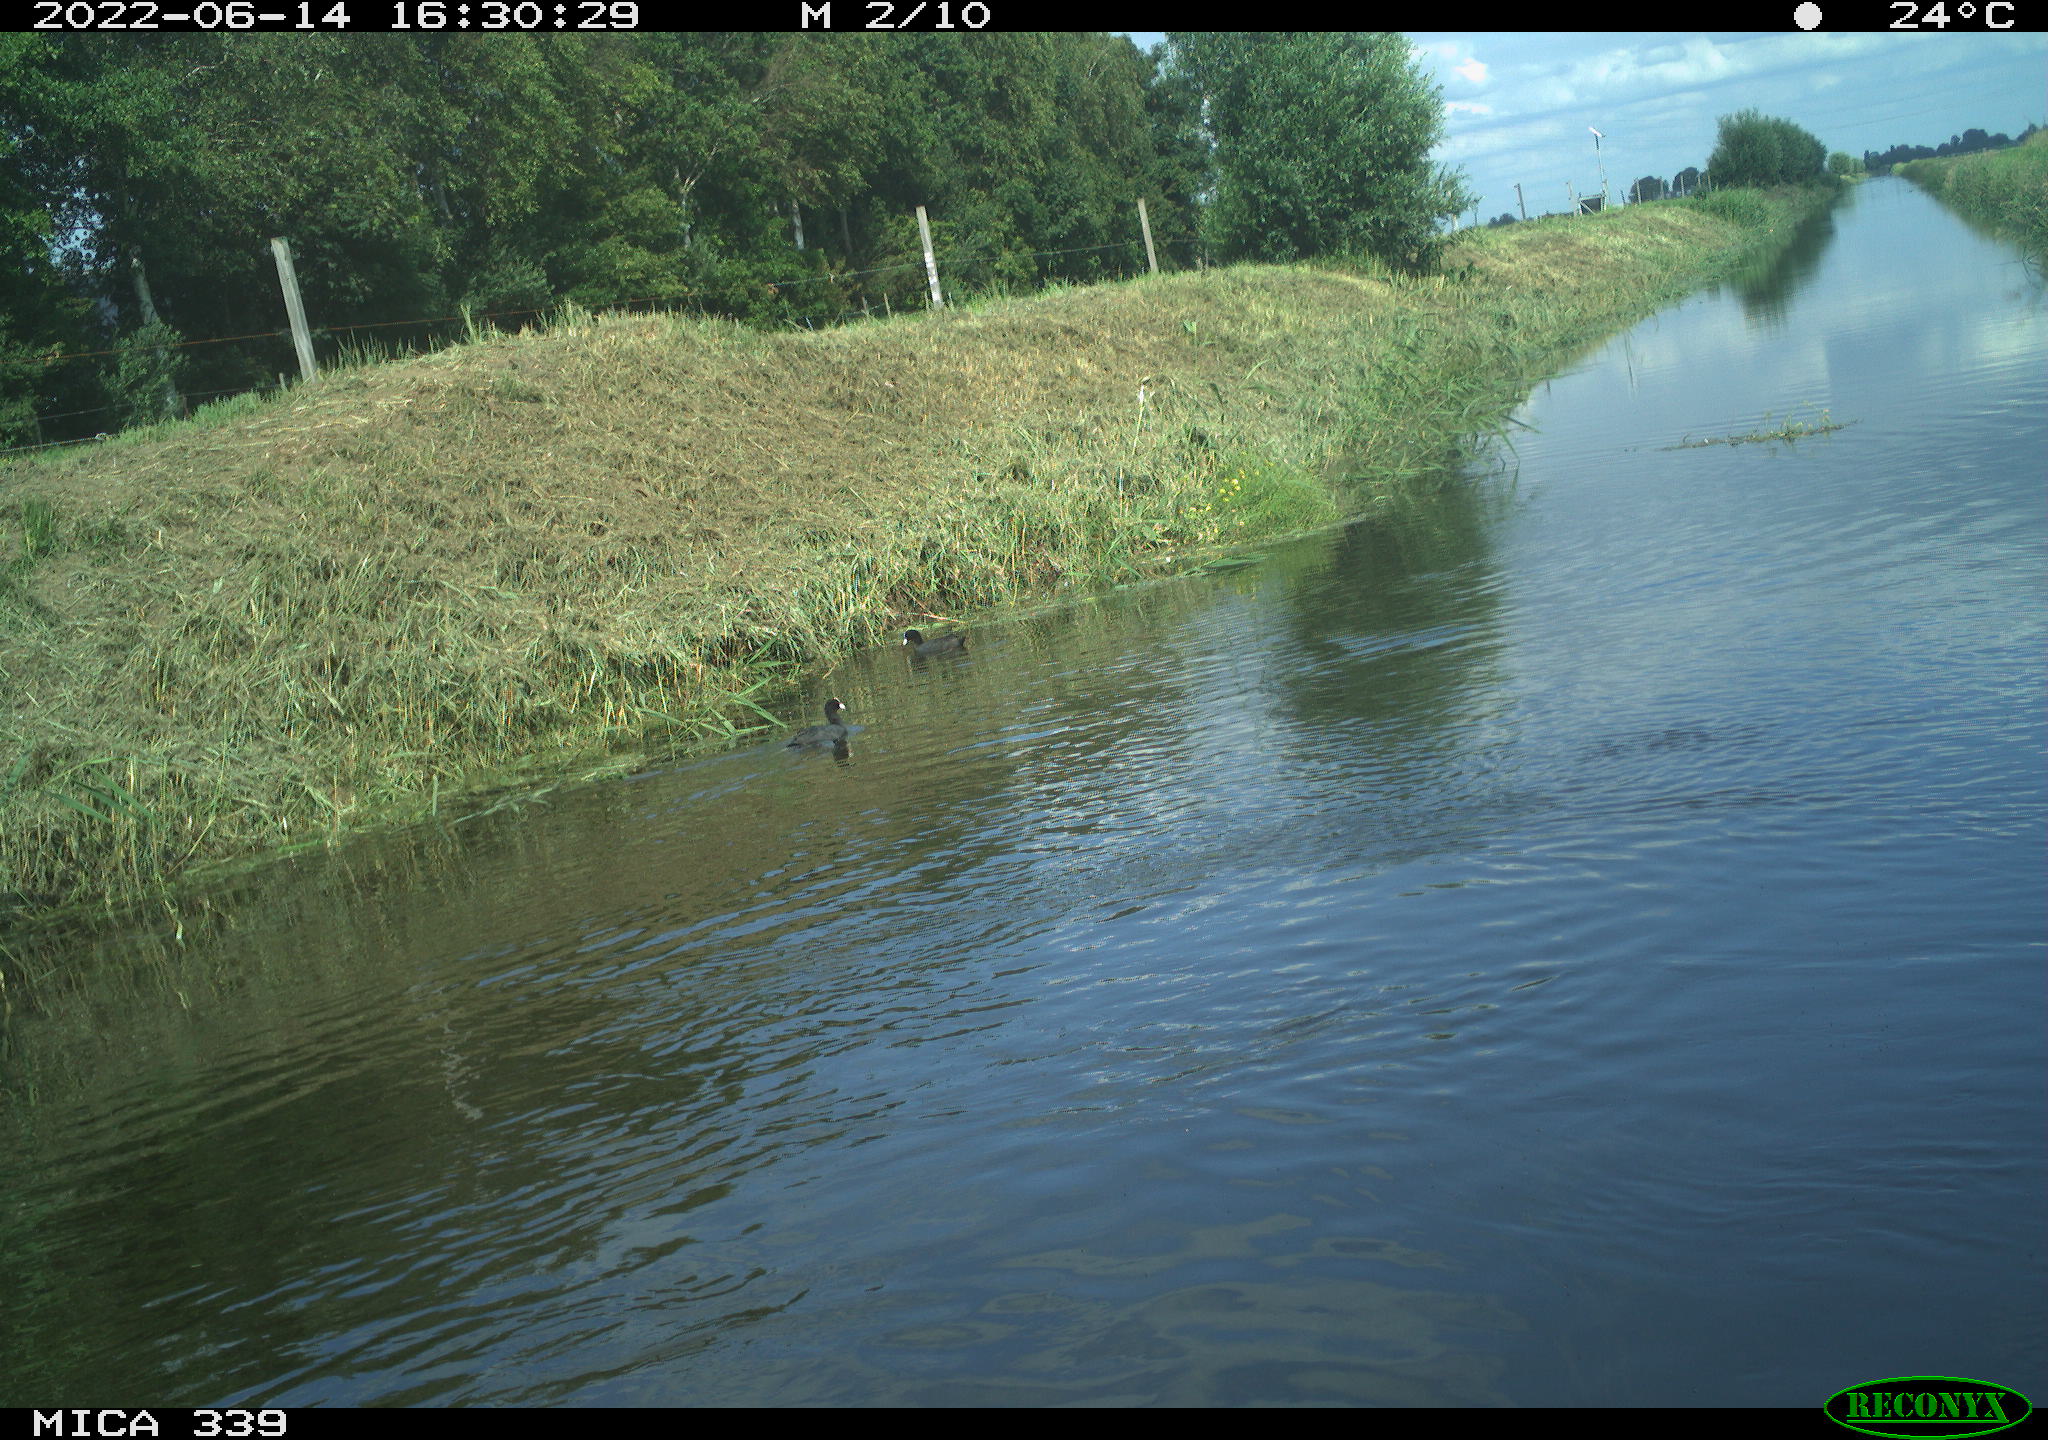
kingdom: Animalia
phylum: Chordata
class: Aves
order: Gruiformes
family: Rallidae
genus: Fulica
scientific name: Fulica atra
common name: Eurasian coot
